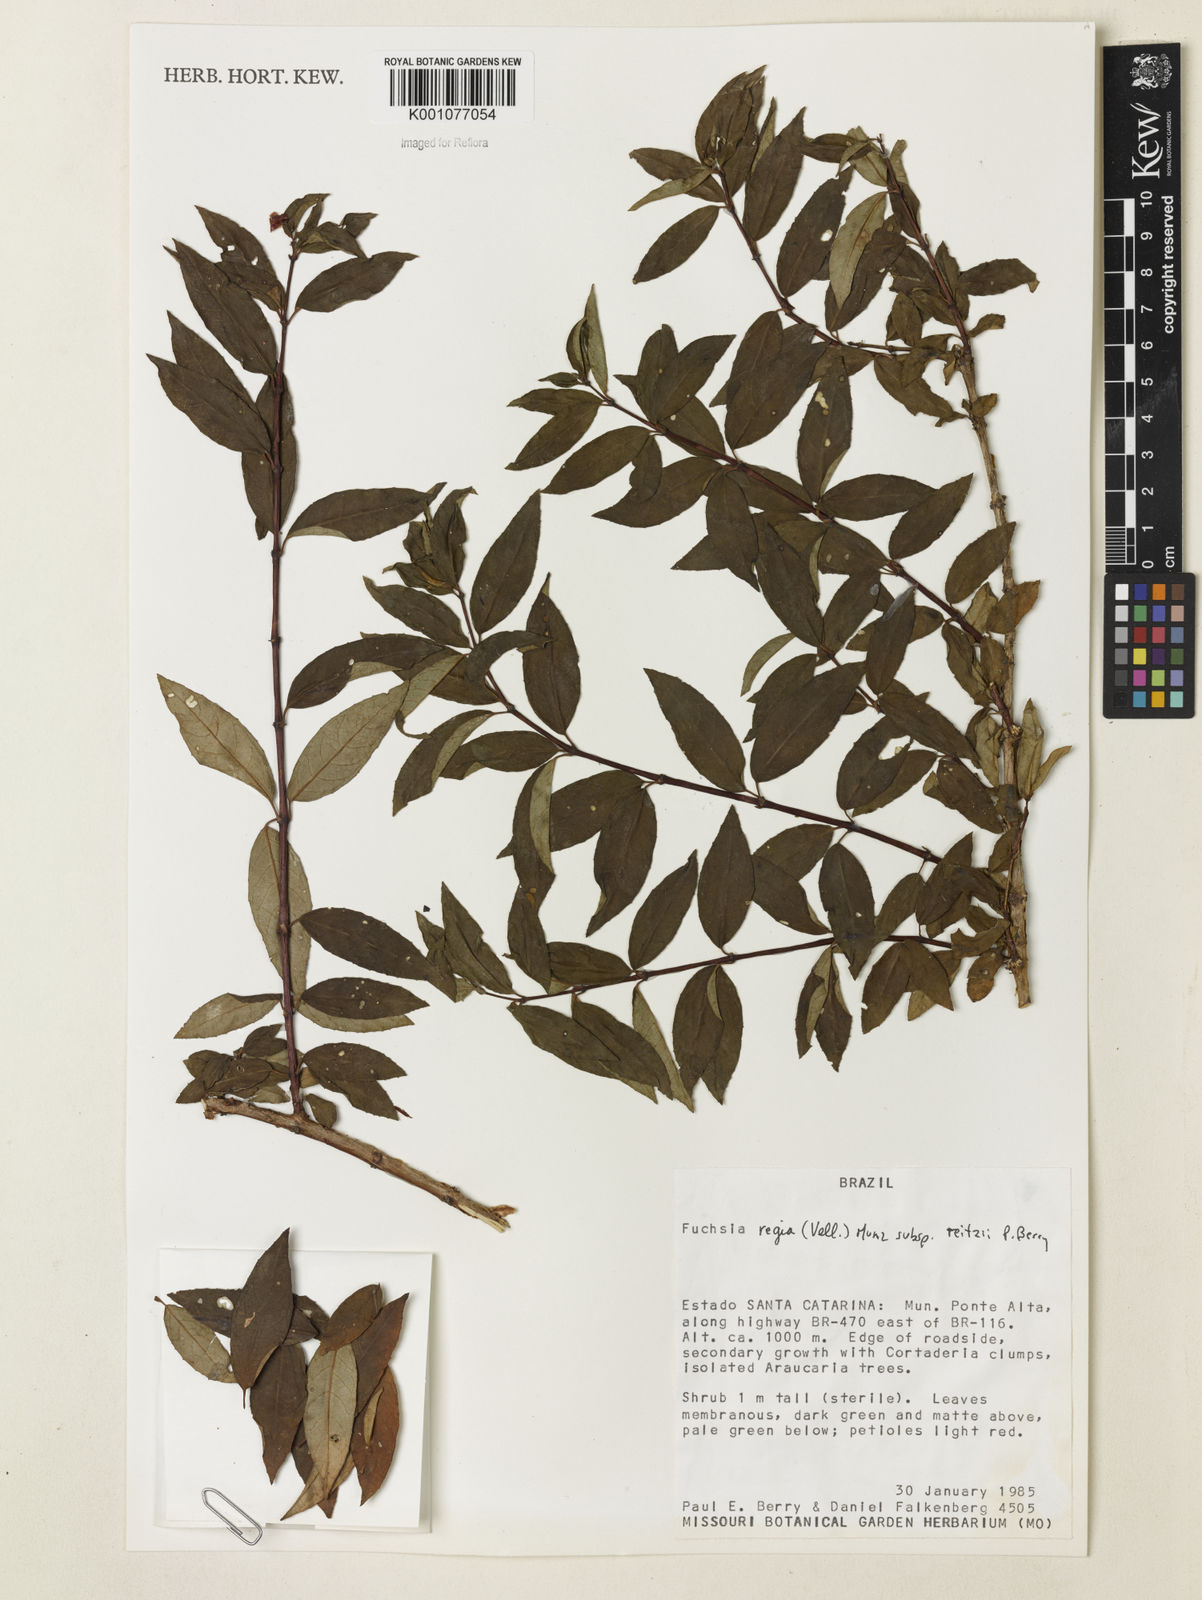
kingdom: Plantae
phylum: Tracheophyta
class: Magnoliopsida
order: Myrtales
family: Onagraceae
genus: Fuchsia
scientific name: Fuchsia regia
